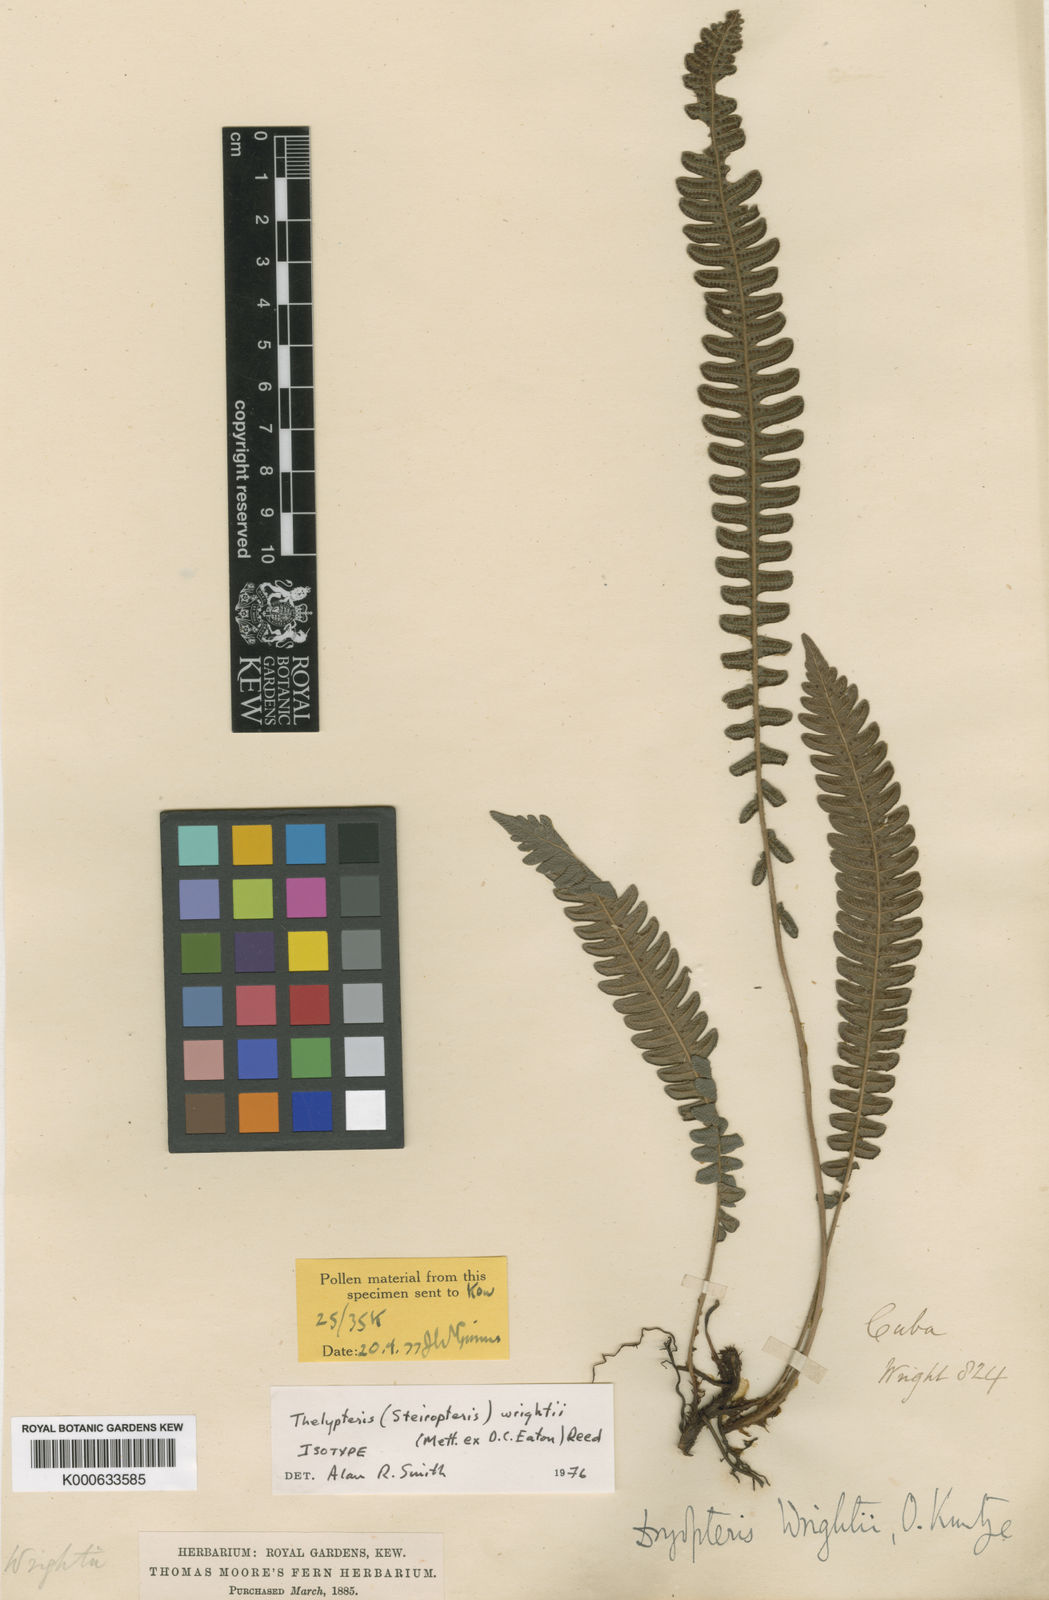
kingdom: Plantae
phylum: Tracheophyta
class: Polypodiopsida
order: Polypodiales
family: Thelypteridaceae
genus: Steiropteris
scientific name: Steiropteris wrightii
